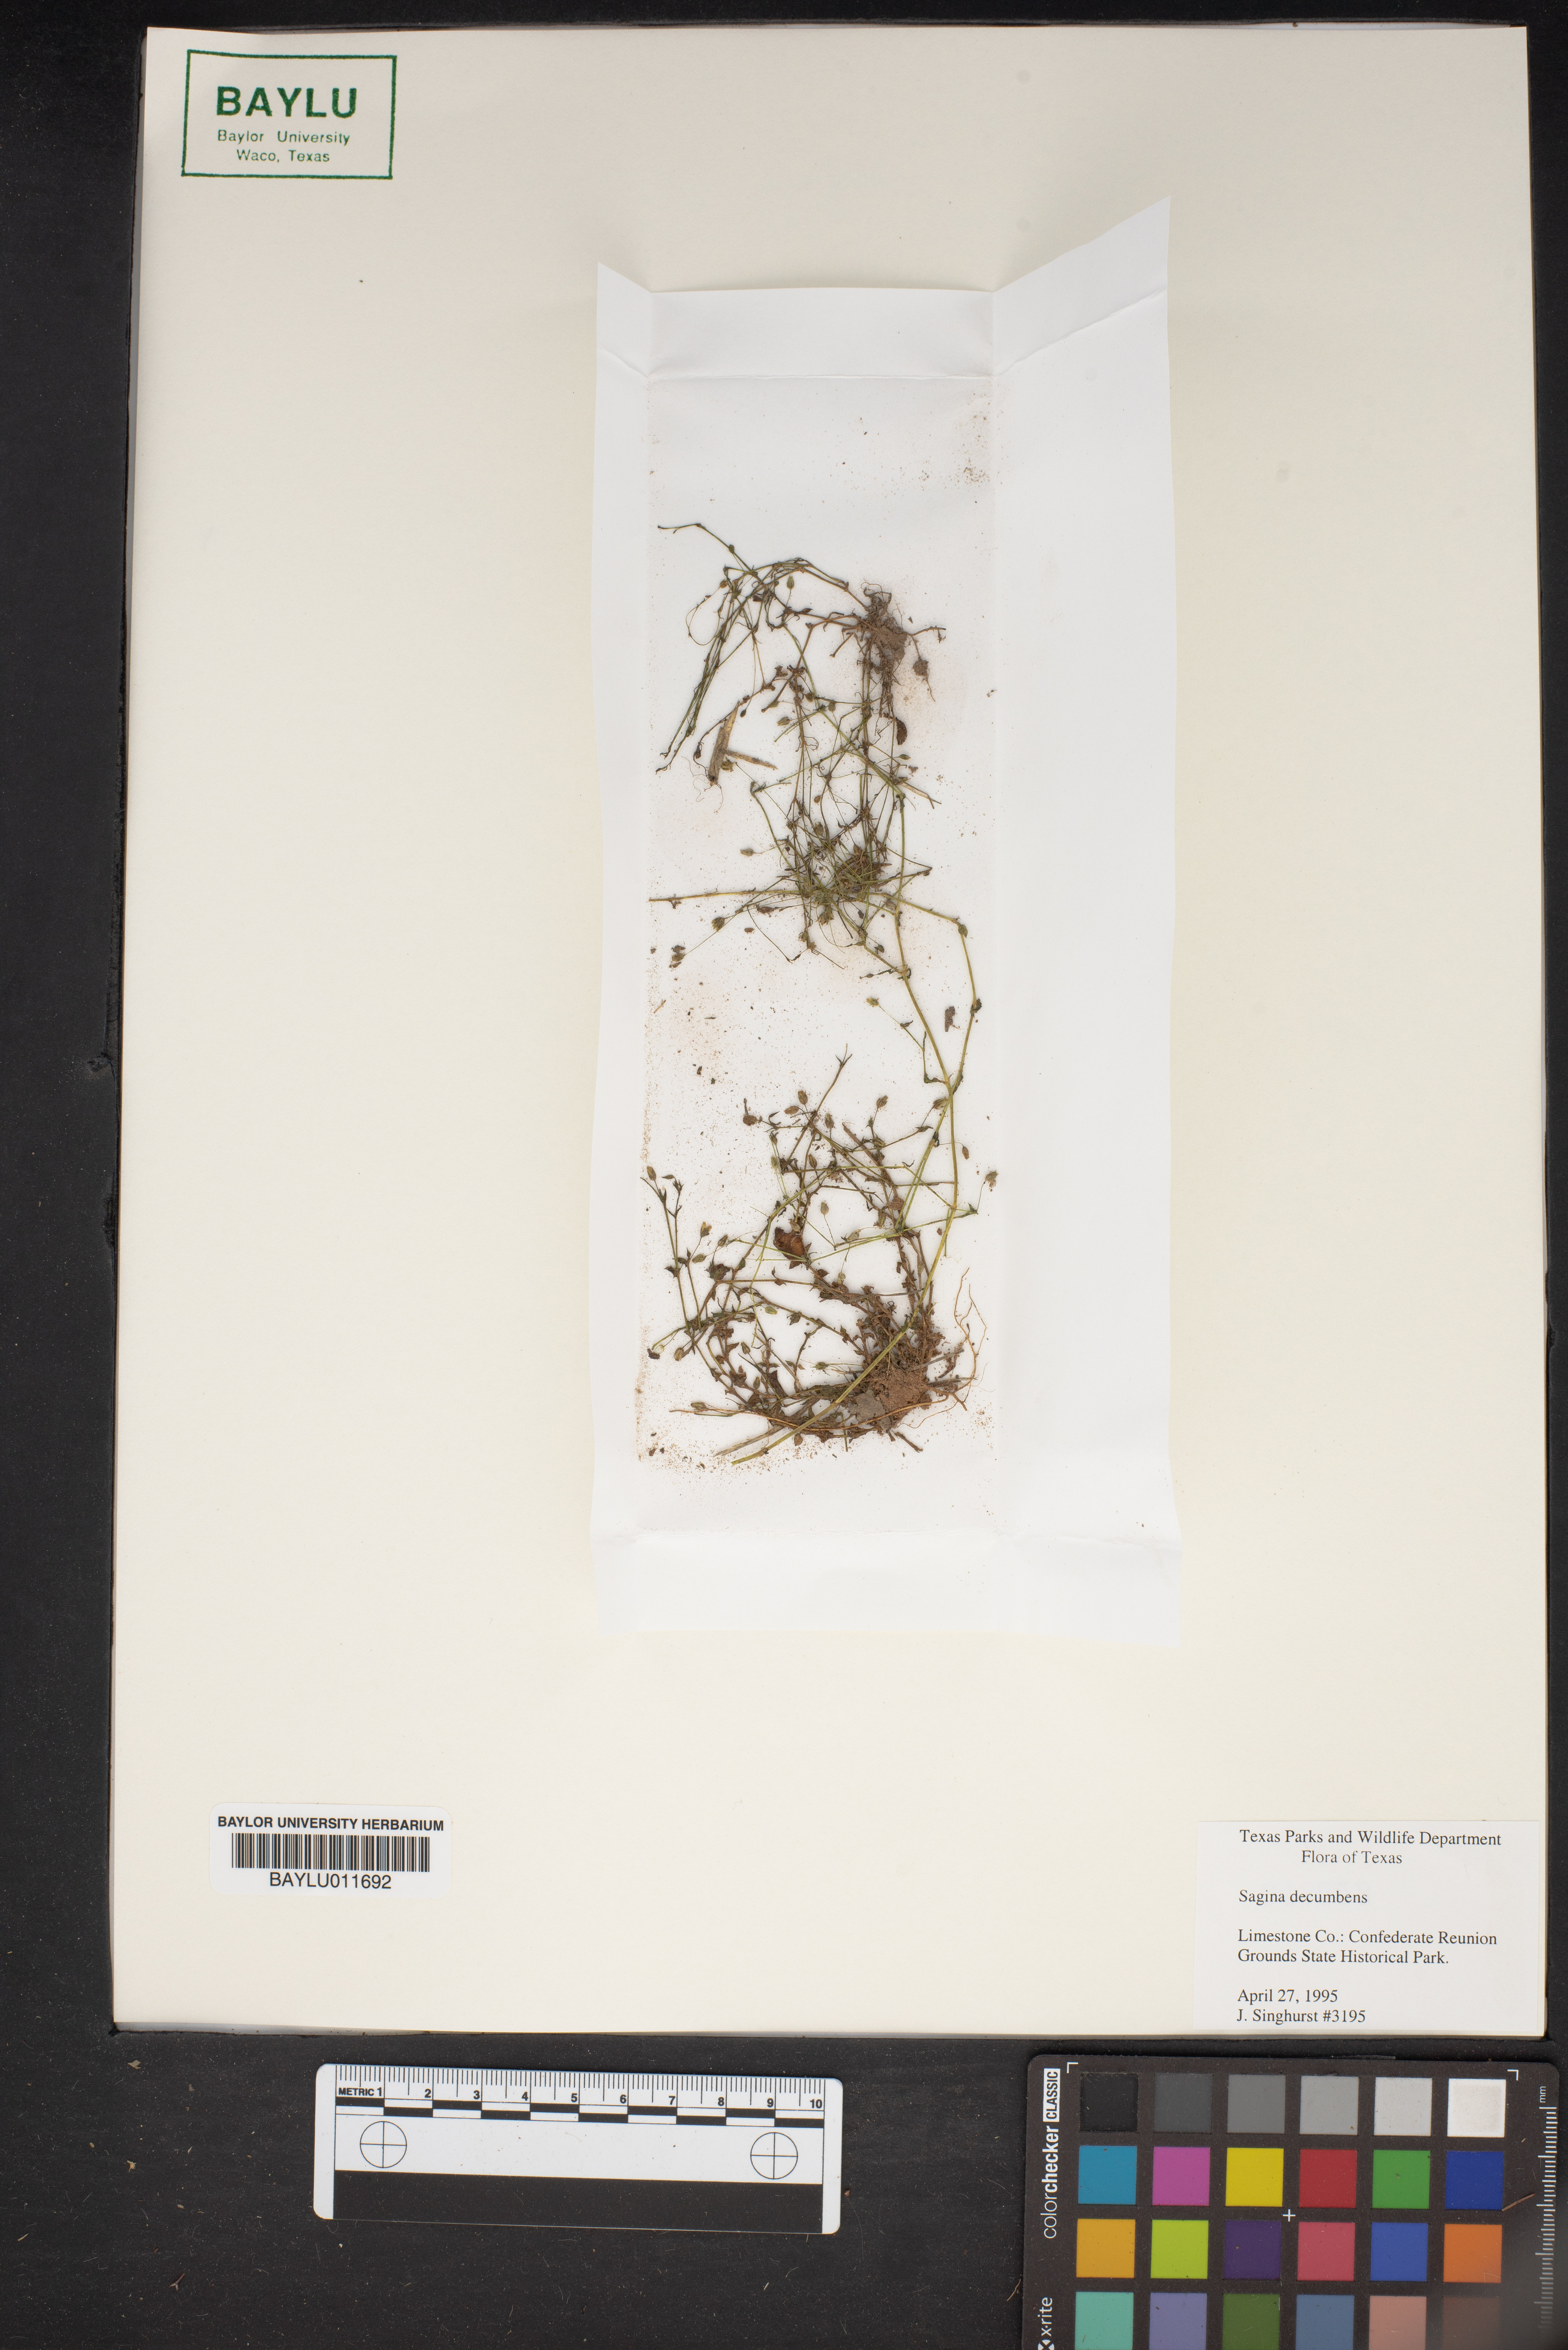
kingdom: Plantae
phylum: Tracheophyta
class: Magnoliopsida
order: Caryophyllales
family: Caryophyllaceae
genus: Sagina
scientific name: Sagina decumbens
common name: Decumbent pearlwort
